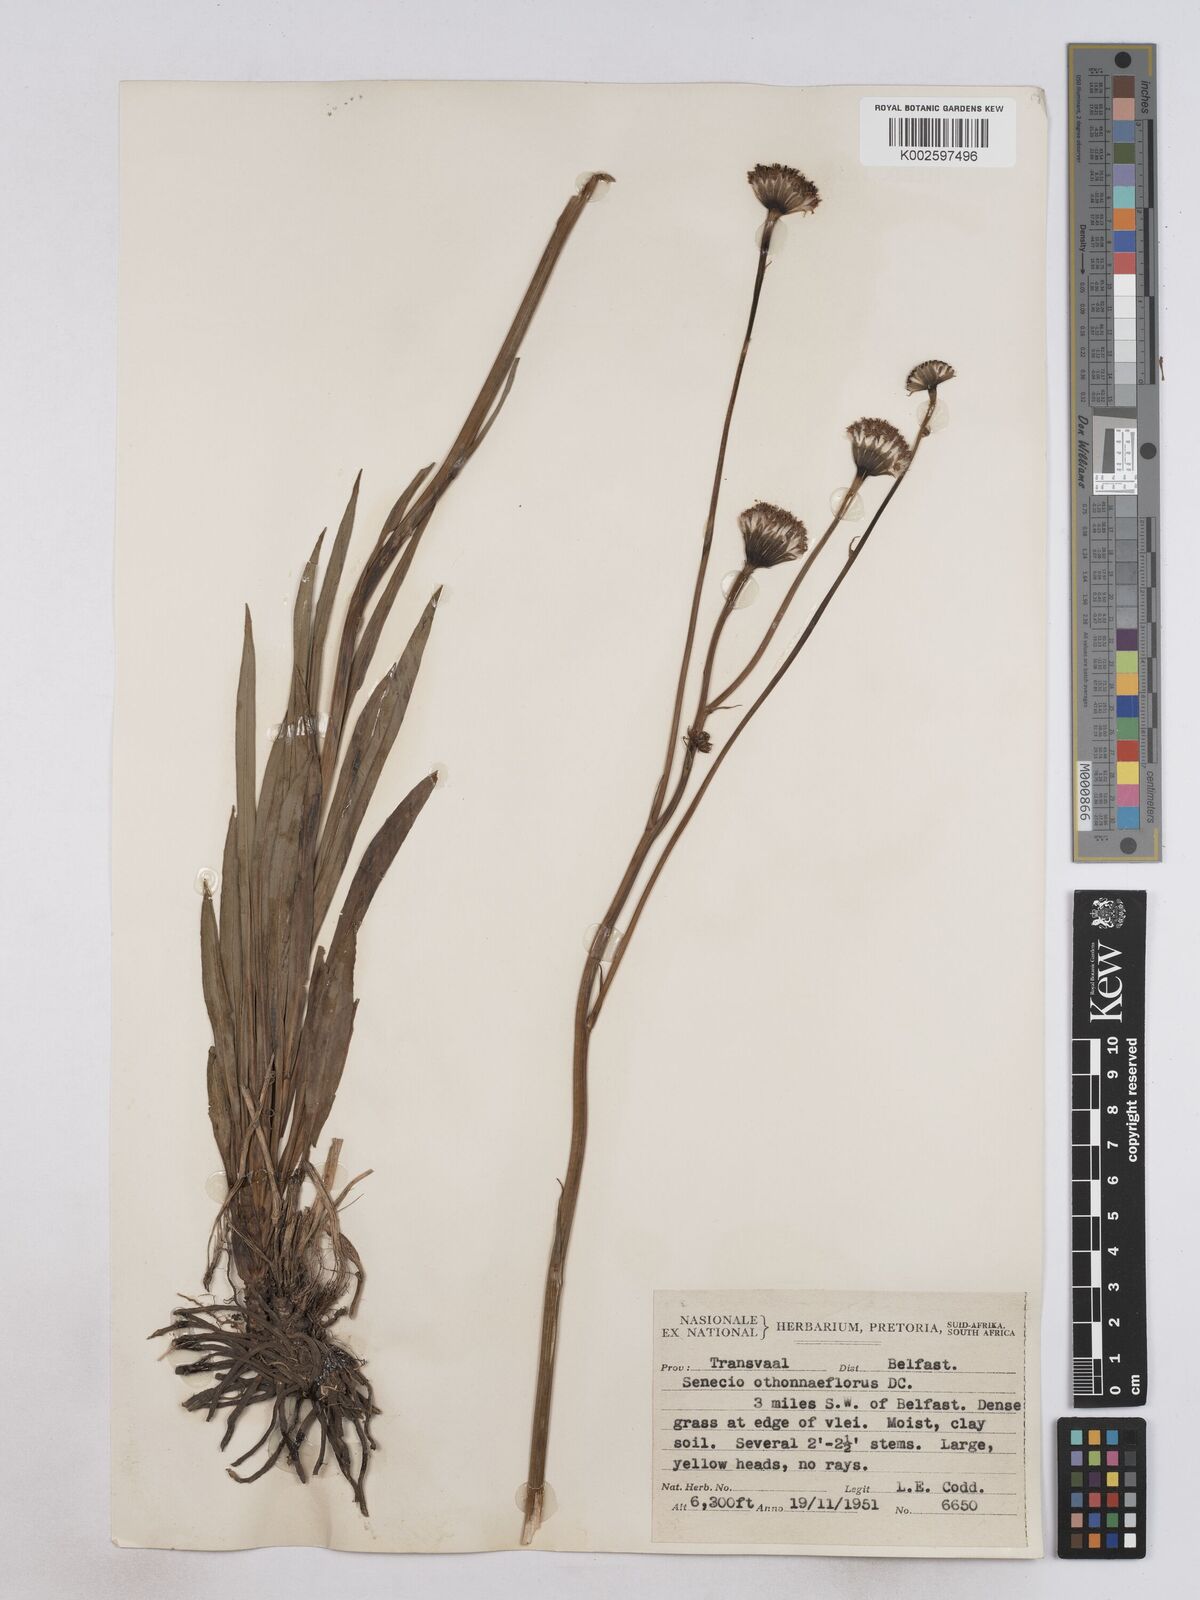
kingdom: Plantae
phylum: Tracheophyta
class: Magnoliopsida
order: Asterales
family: Asteraceae
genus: Senecio
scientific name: Senecio othonniflorus
